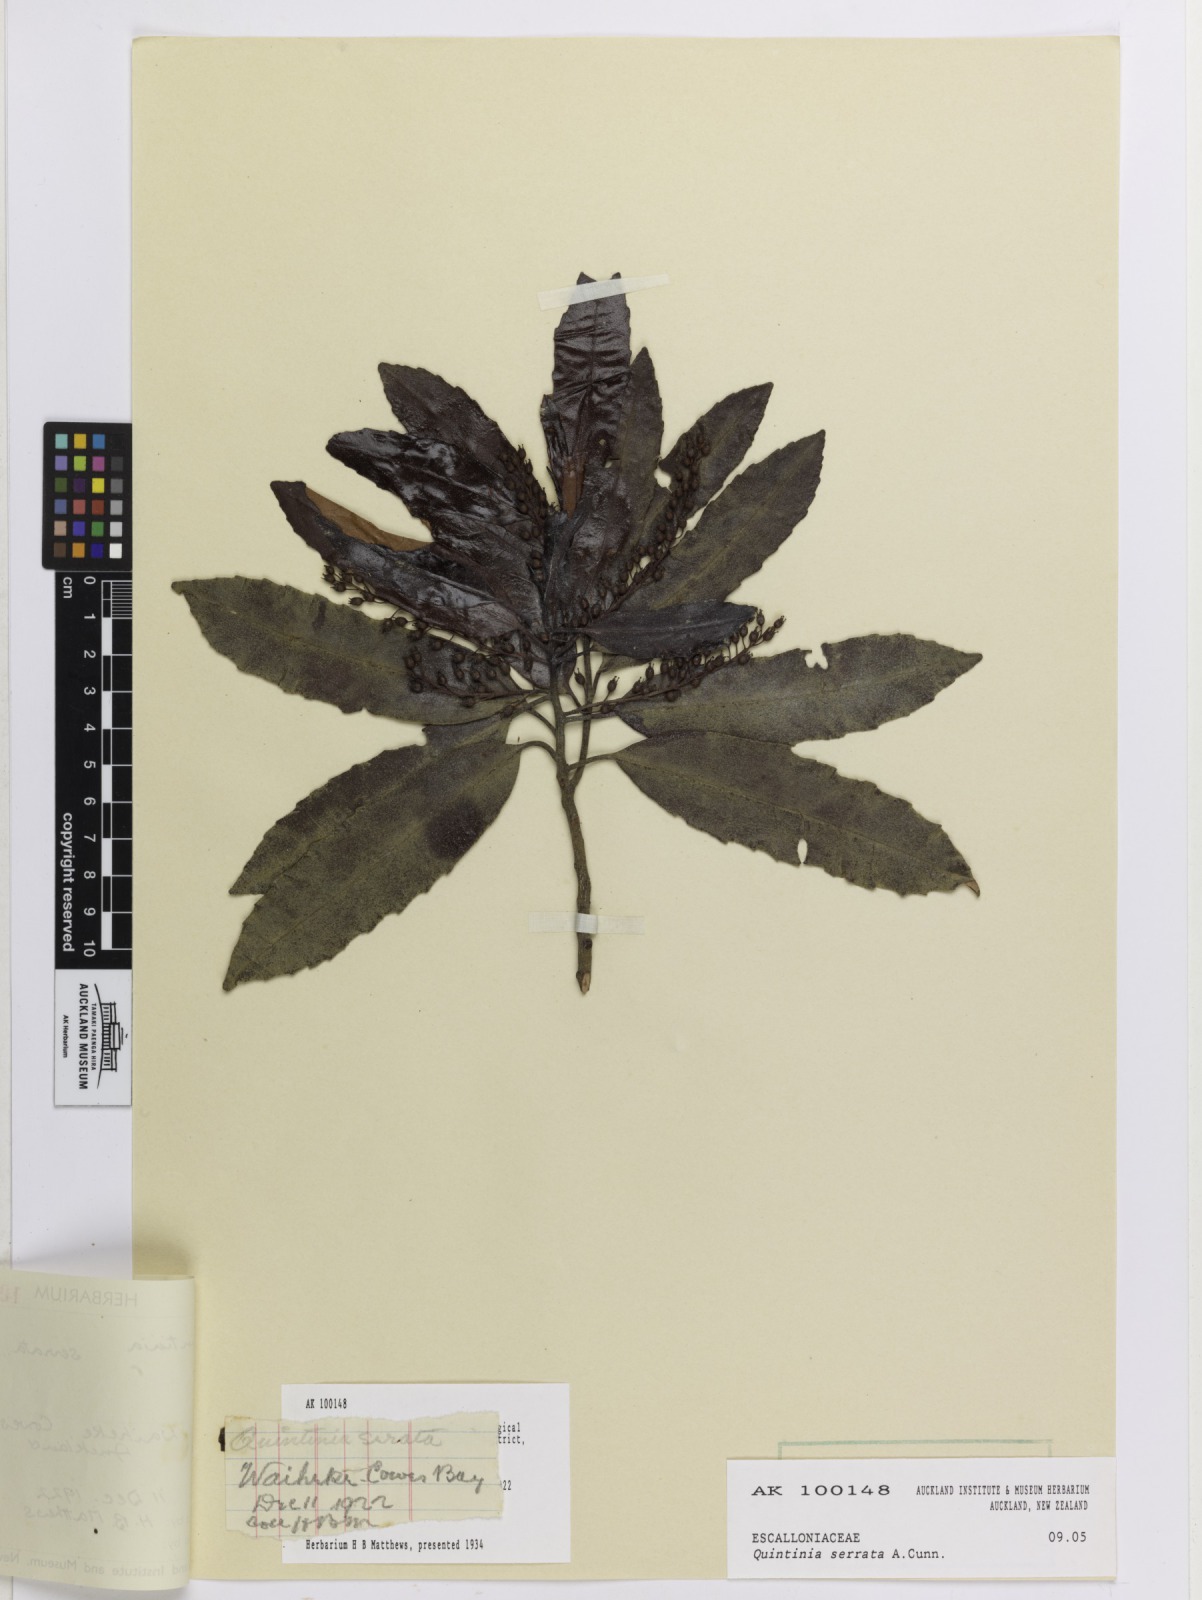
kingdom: Plantae
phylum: Tracheophyta
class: Magnoliopsida
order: Paracryphiales
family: Paracryphiaceae
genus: Quintinia
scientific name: Quintinia serrata
